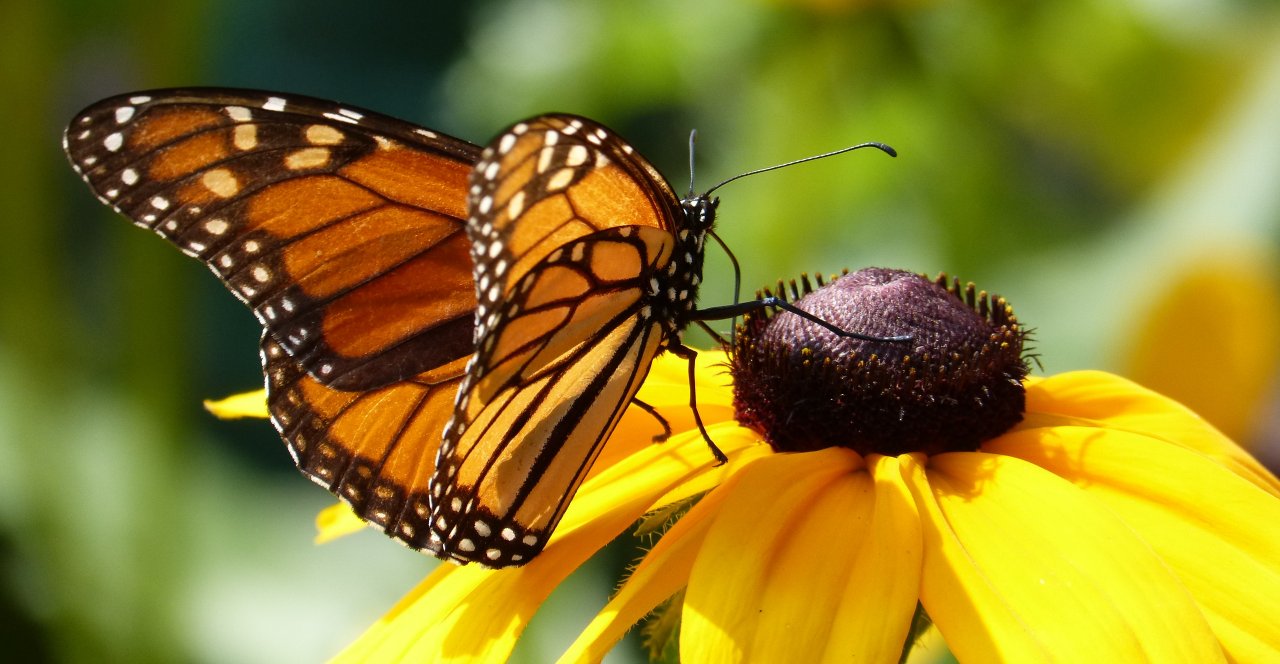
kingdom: Animalia
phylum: Arthropoda
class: Insecta
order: Lepidoptera
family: Nymphalidae
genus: Danaus
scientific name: Danaus plexippus
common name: Monarch
